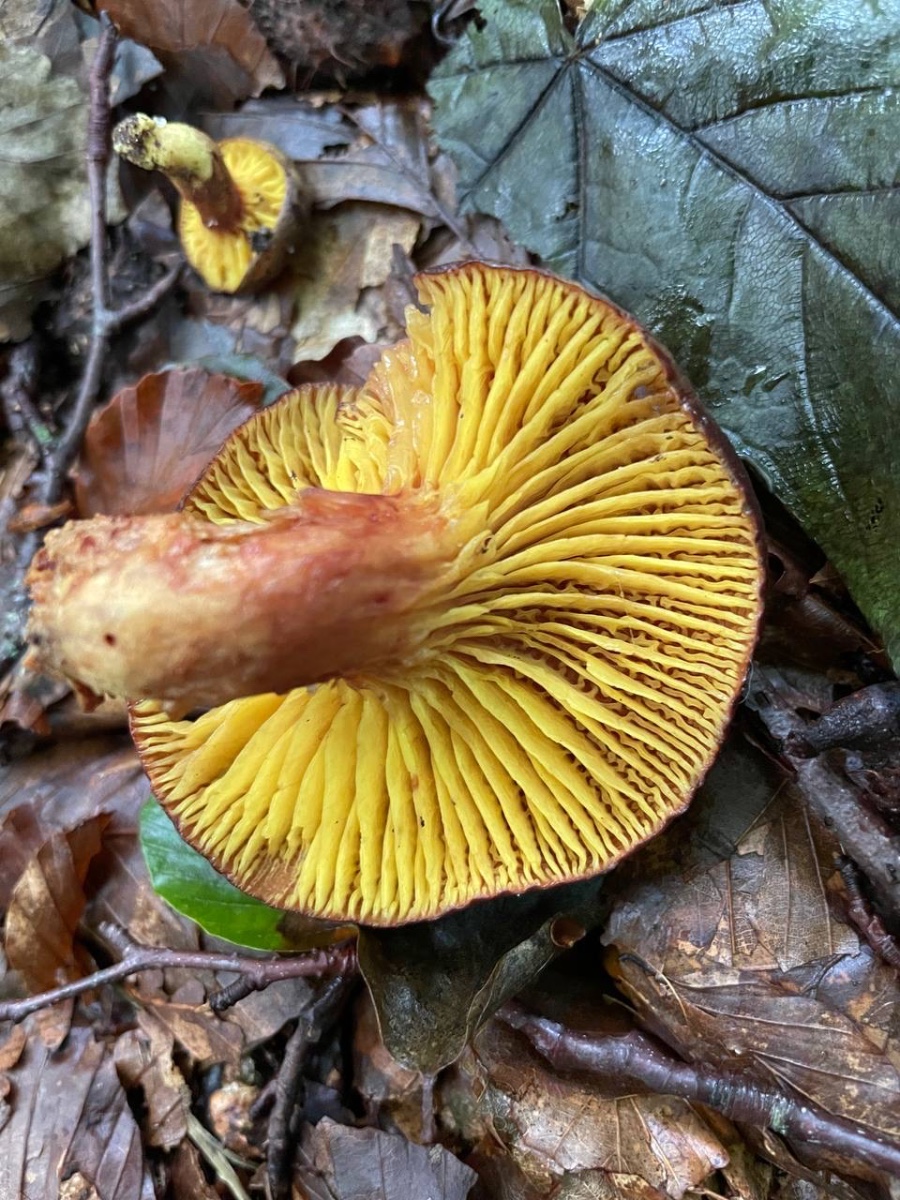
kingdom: Fungi
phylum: Basidiomycota
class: Agaricomycetes
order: Boletales
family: Boletaceae
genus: Phylloporus
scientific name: Phylloporus pelletieri
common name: lamelrørhat
